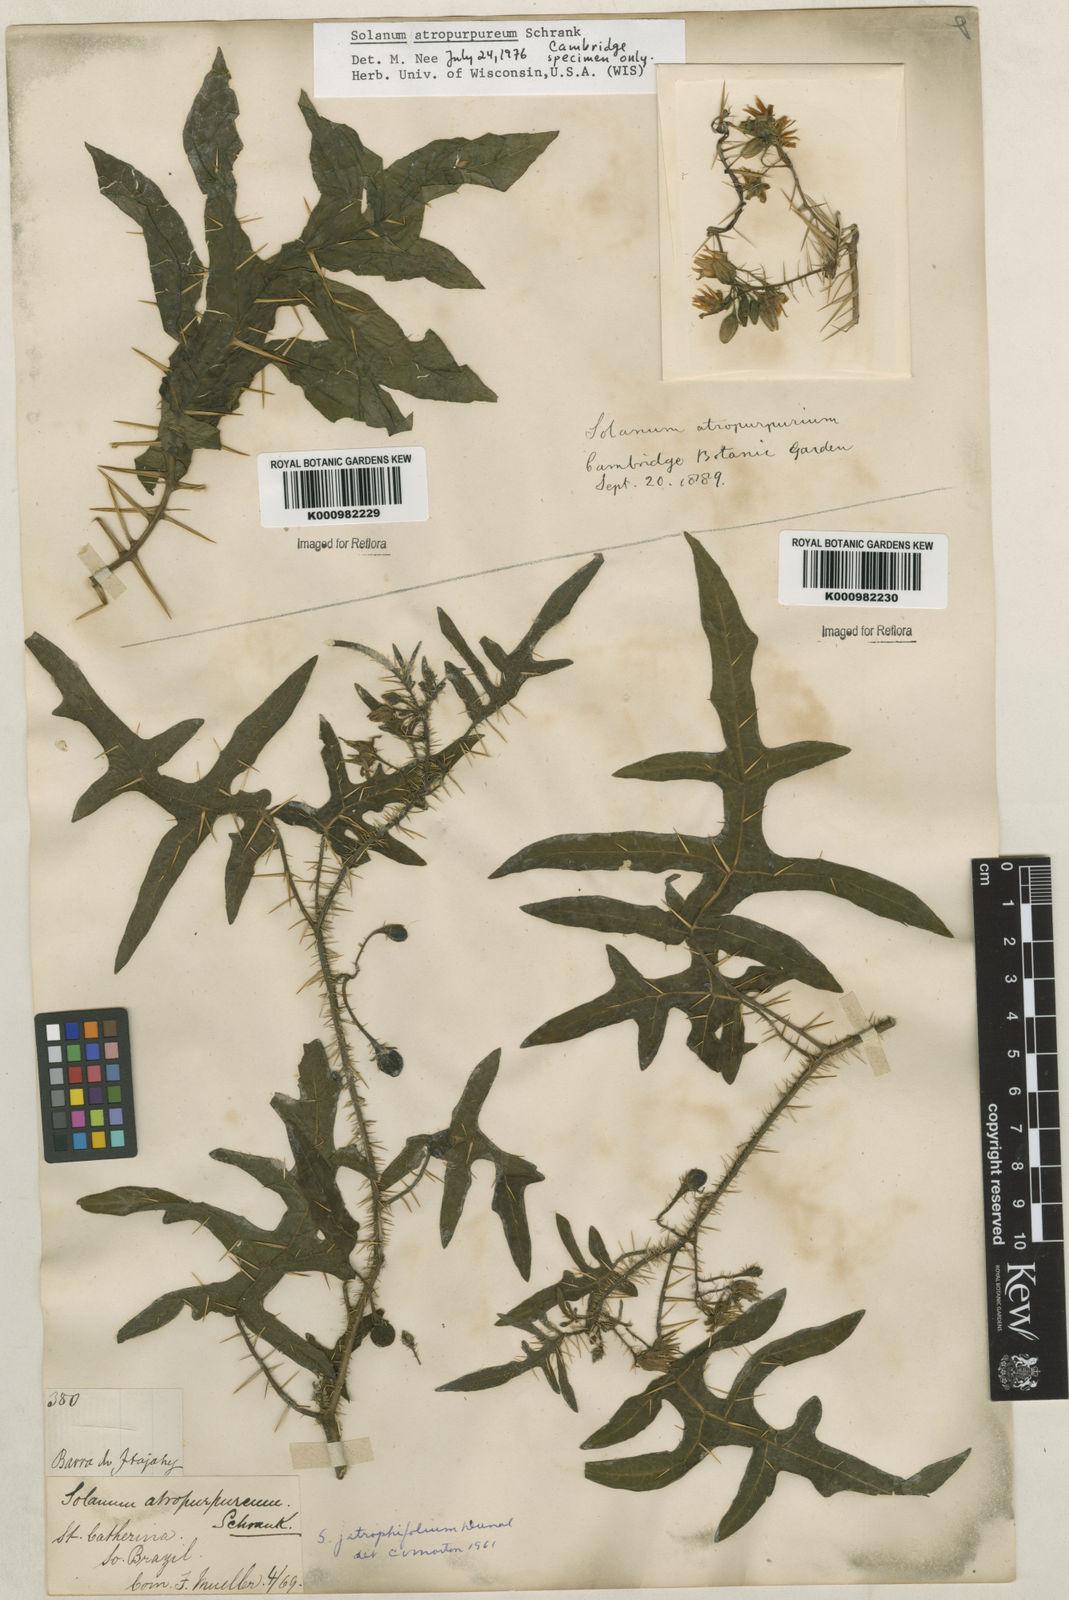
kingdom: Plantae
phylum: Tracheophyta
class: Magnoliopsida
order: Solanales
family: Solanaceae
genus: Solanum
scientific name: Solanum affine
